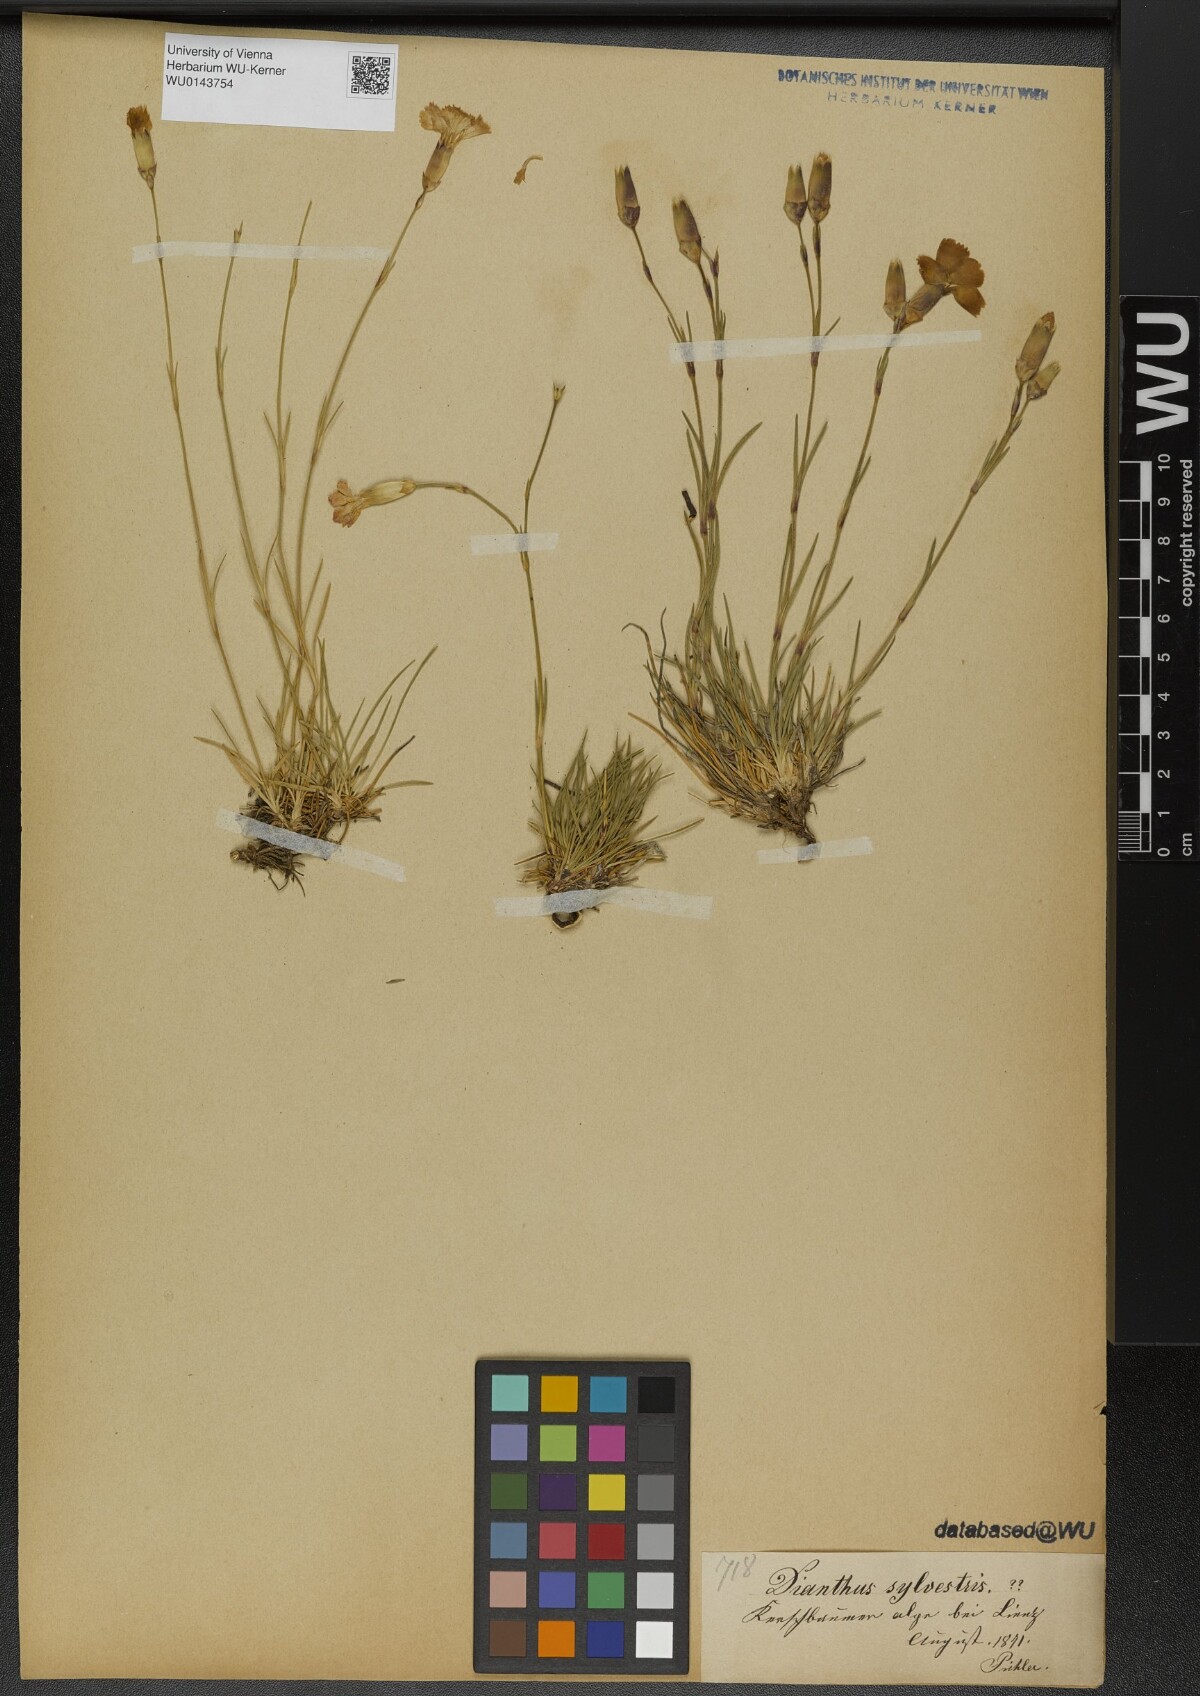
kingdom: Plantae
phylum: Tracheophyta
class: Magnoliopsida
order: Caryophyllales
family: Caryophyllaceae
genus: Dianthus
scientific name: Dianthus sylvestris
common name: Wood pink
